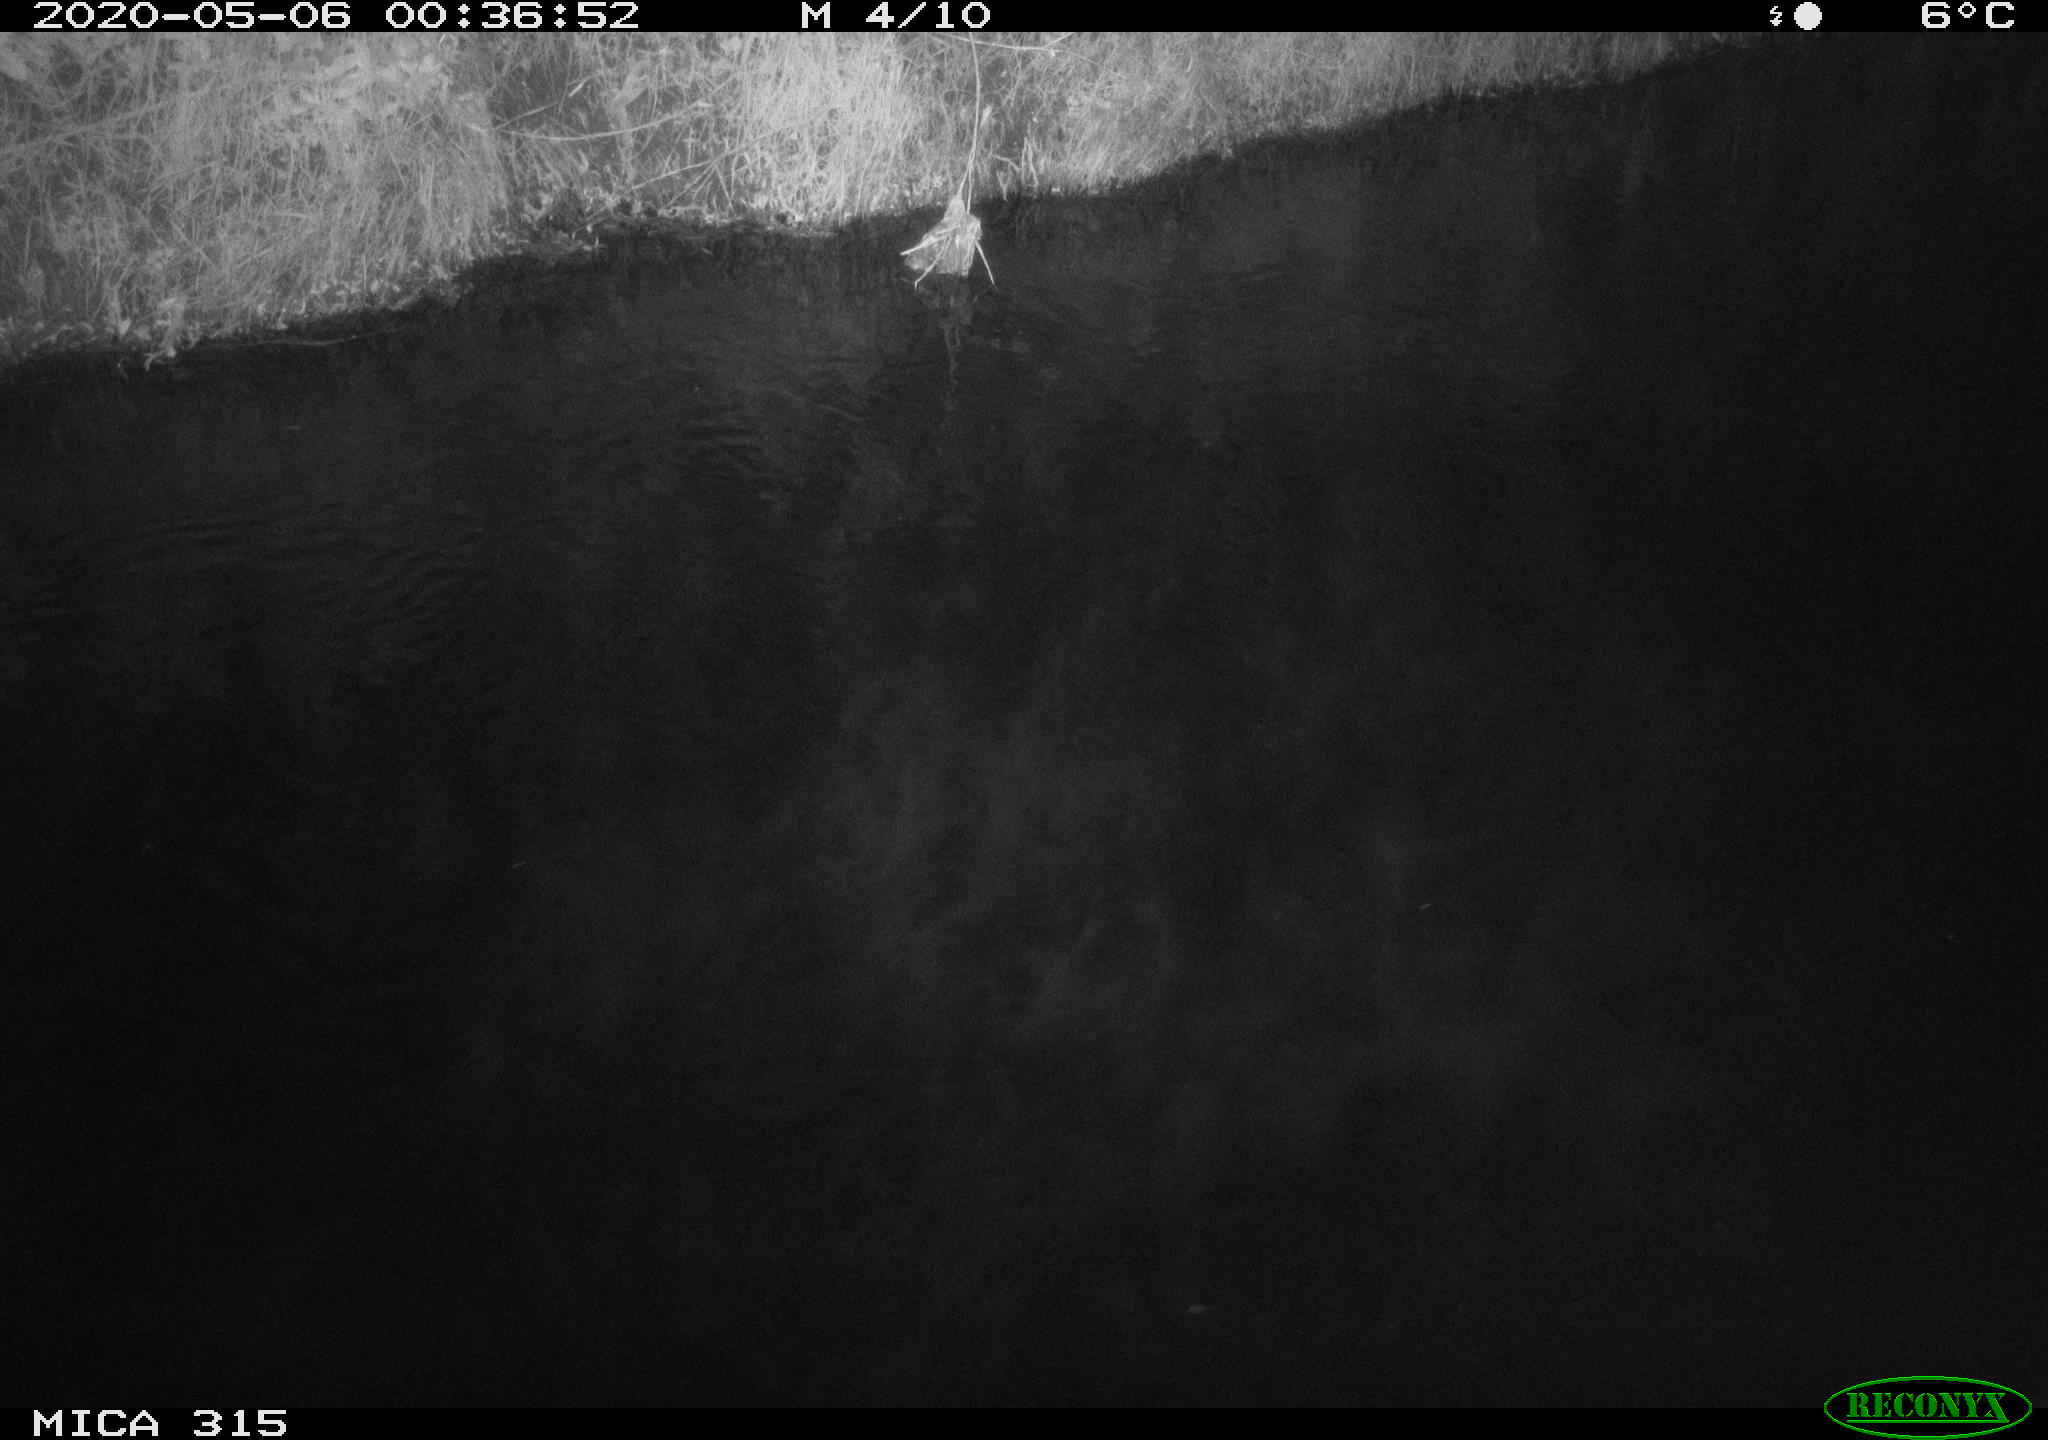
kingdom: Animalia
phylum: Chordata
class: Aves
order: Anseriformes
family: Anatidae
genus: Anas
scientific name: Anas platyrhynchos
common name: Mallard
